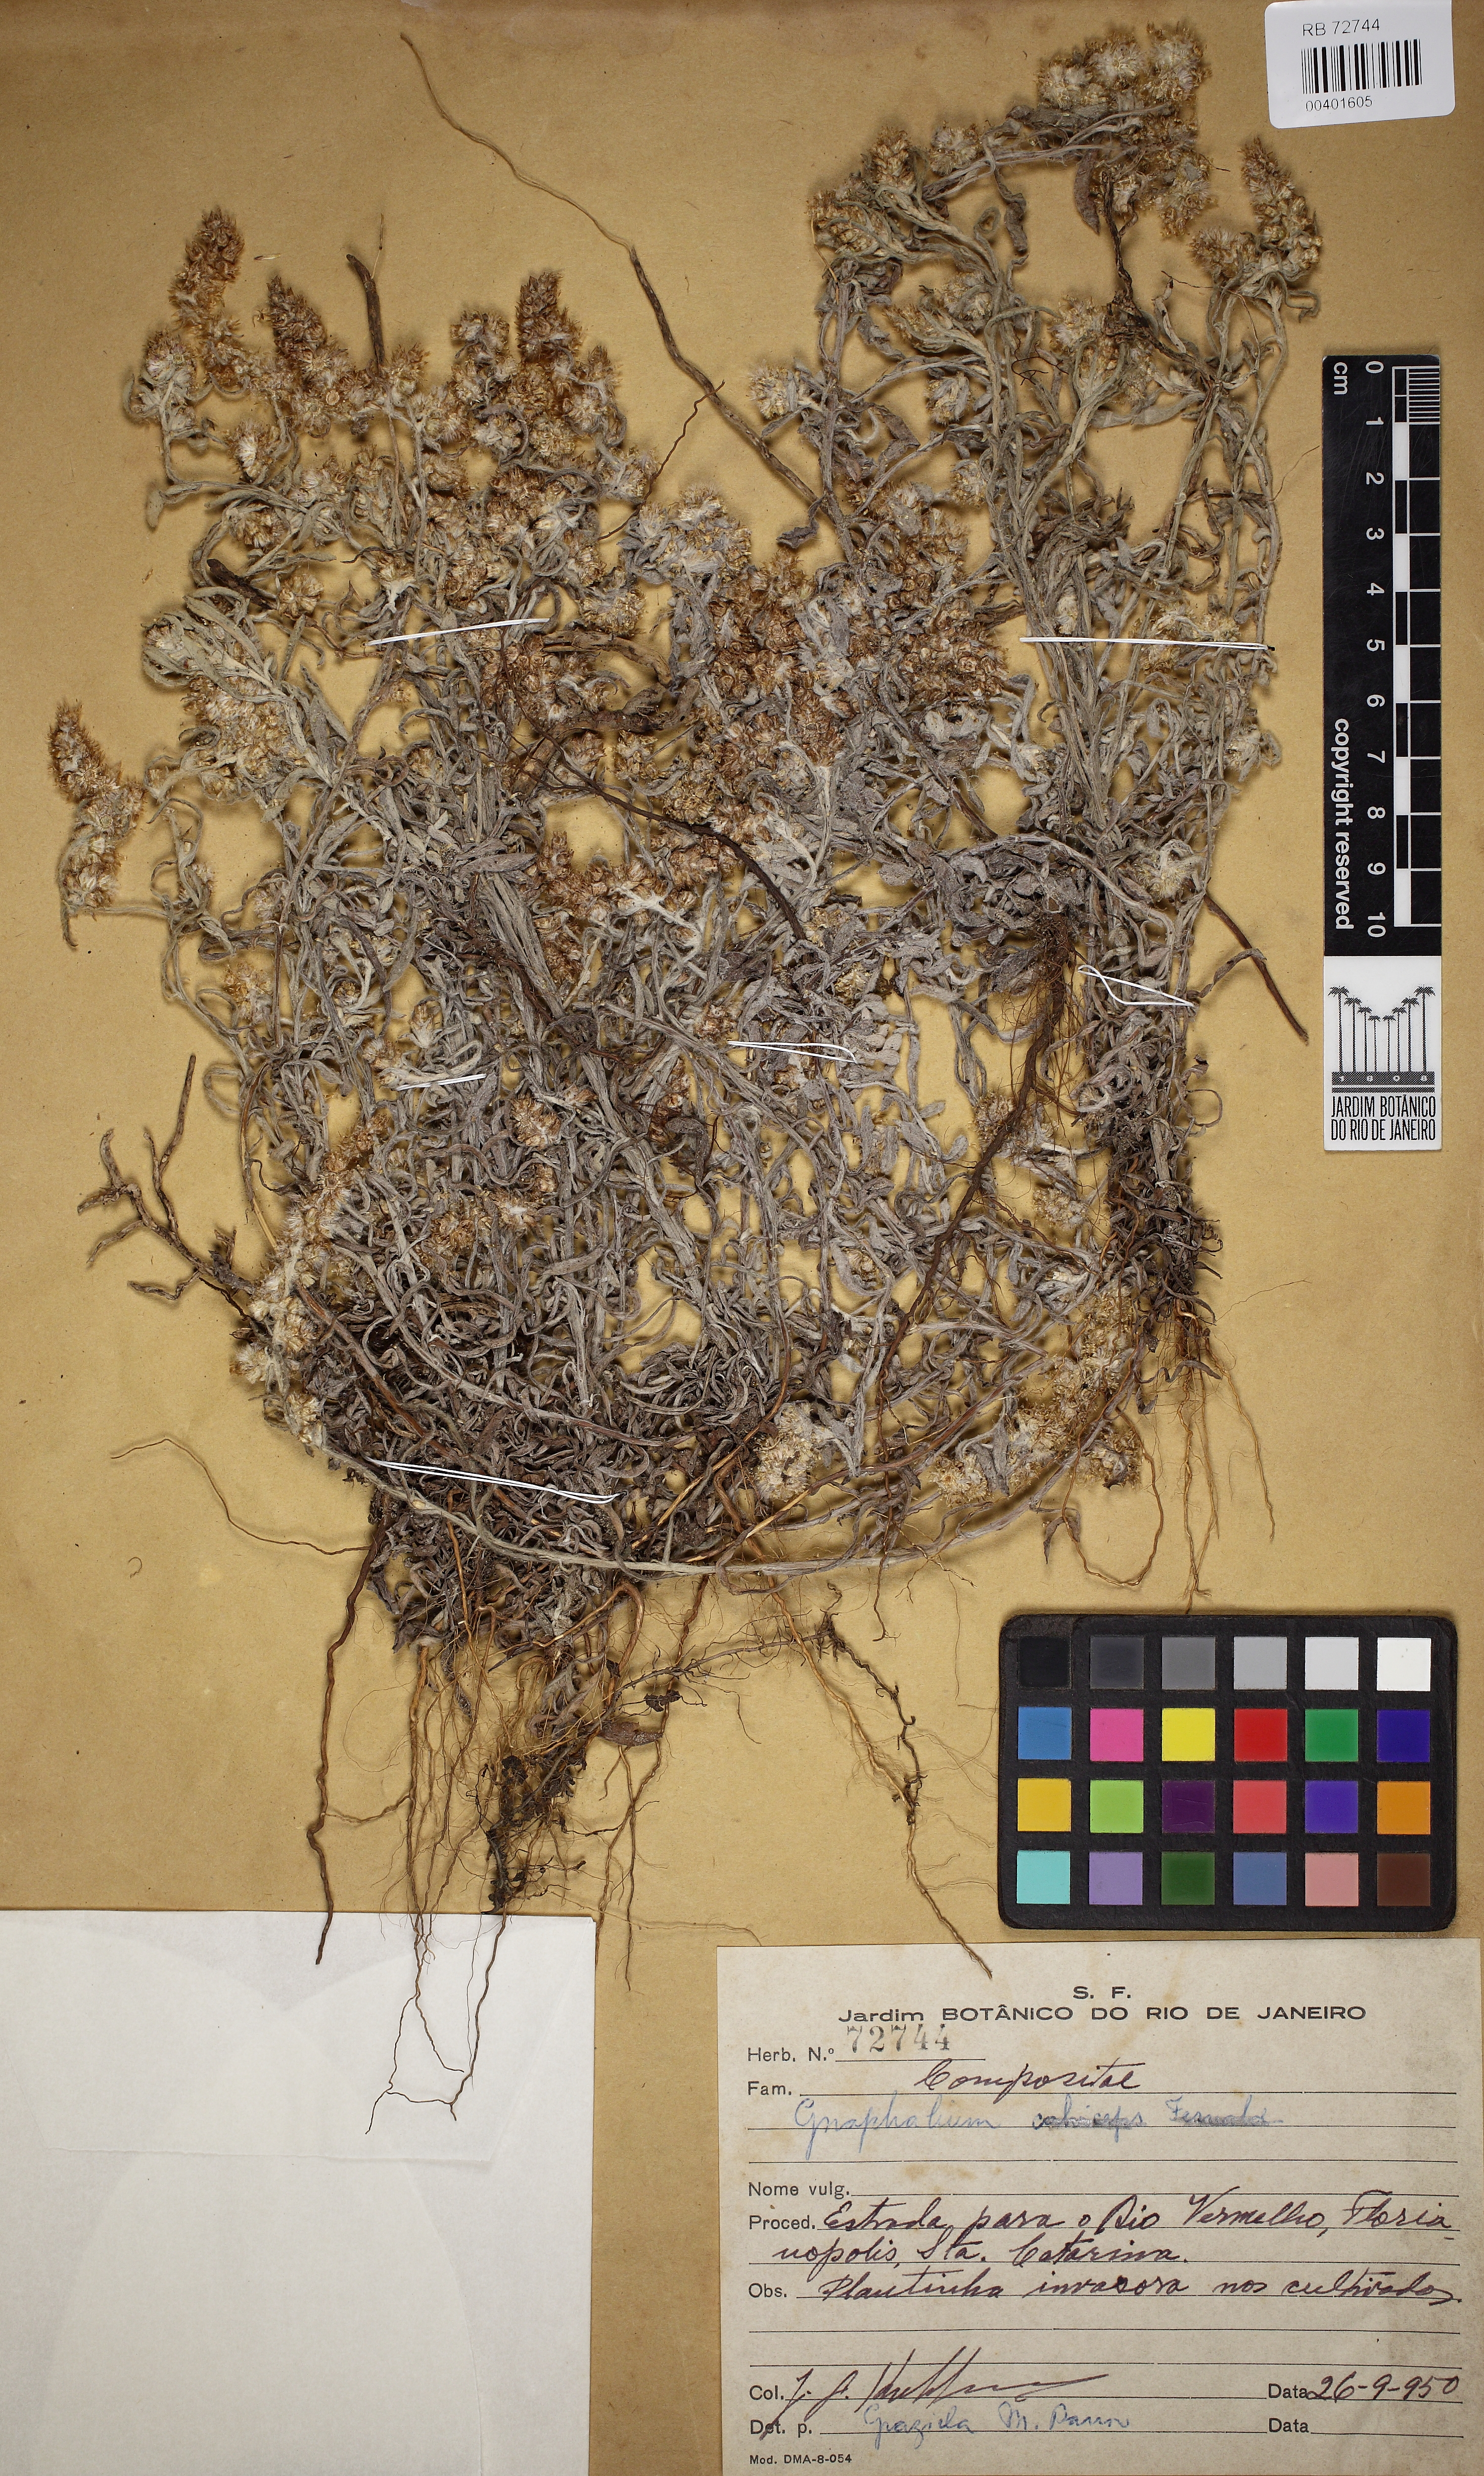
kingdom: Plantae
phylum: Tracheophyta
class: Magnoliopsida
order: Asterales
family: Asteraceae
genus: Pseudognaphalium
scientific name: Pseudognaphalium
